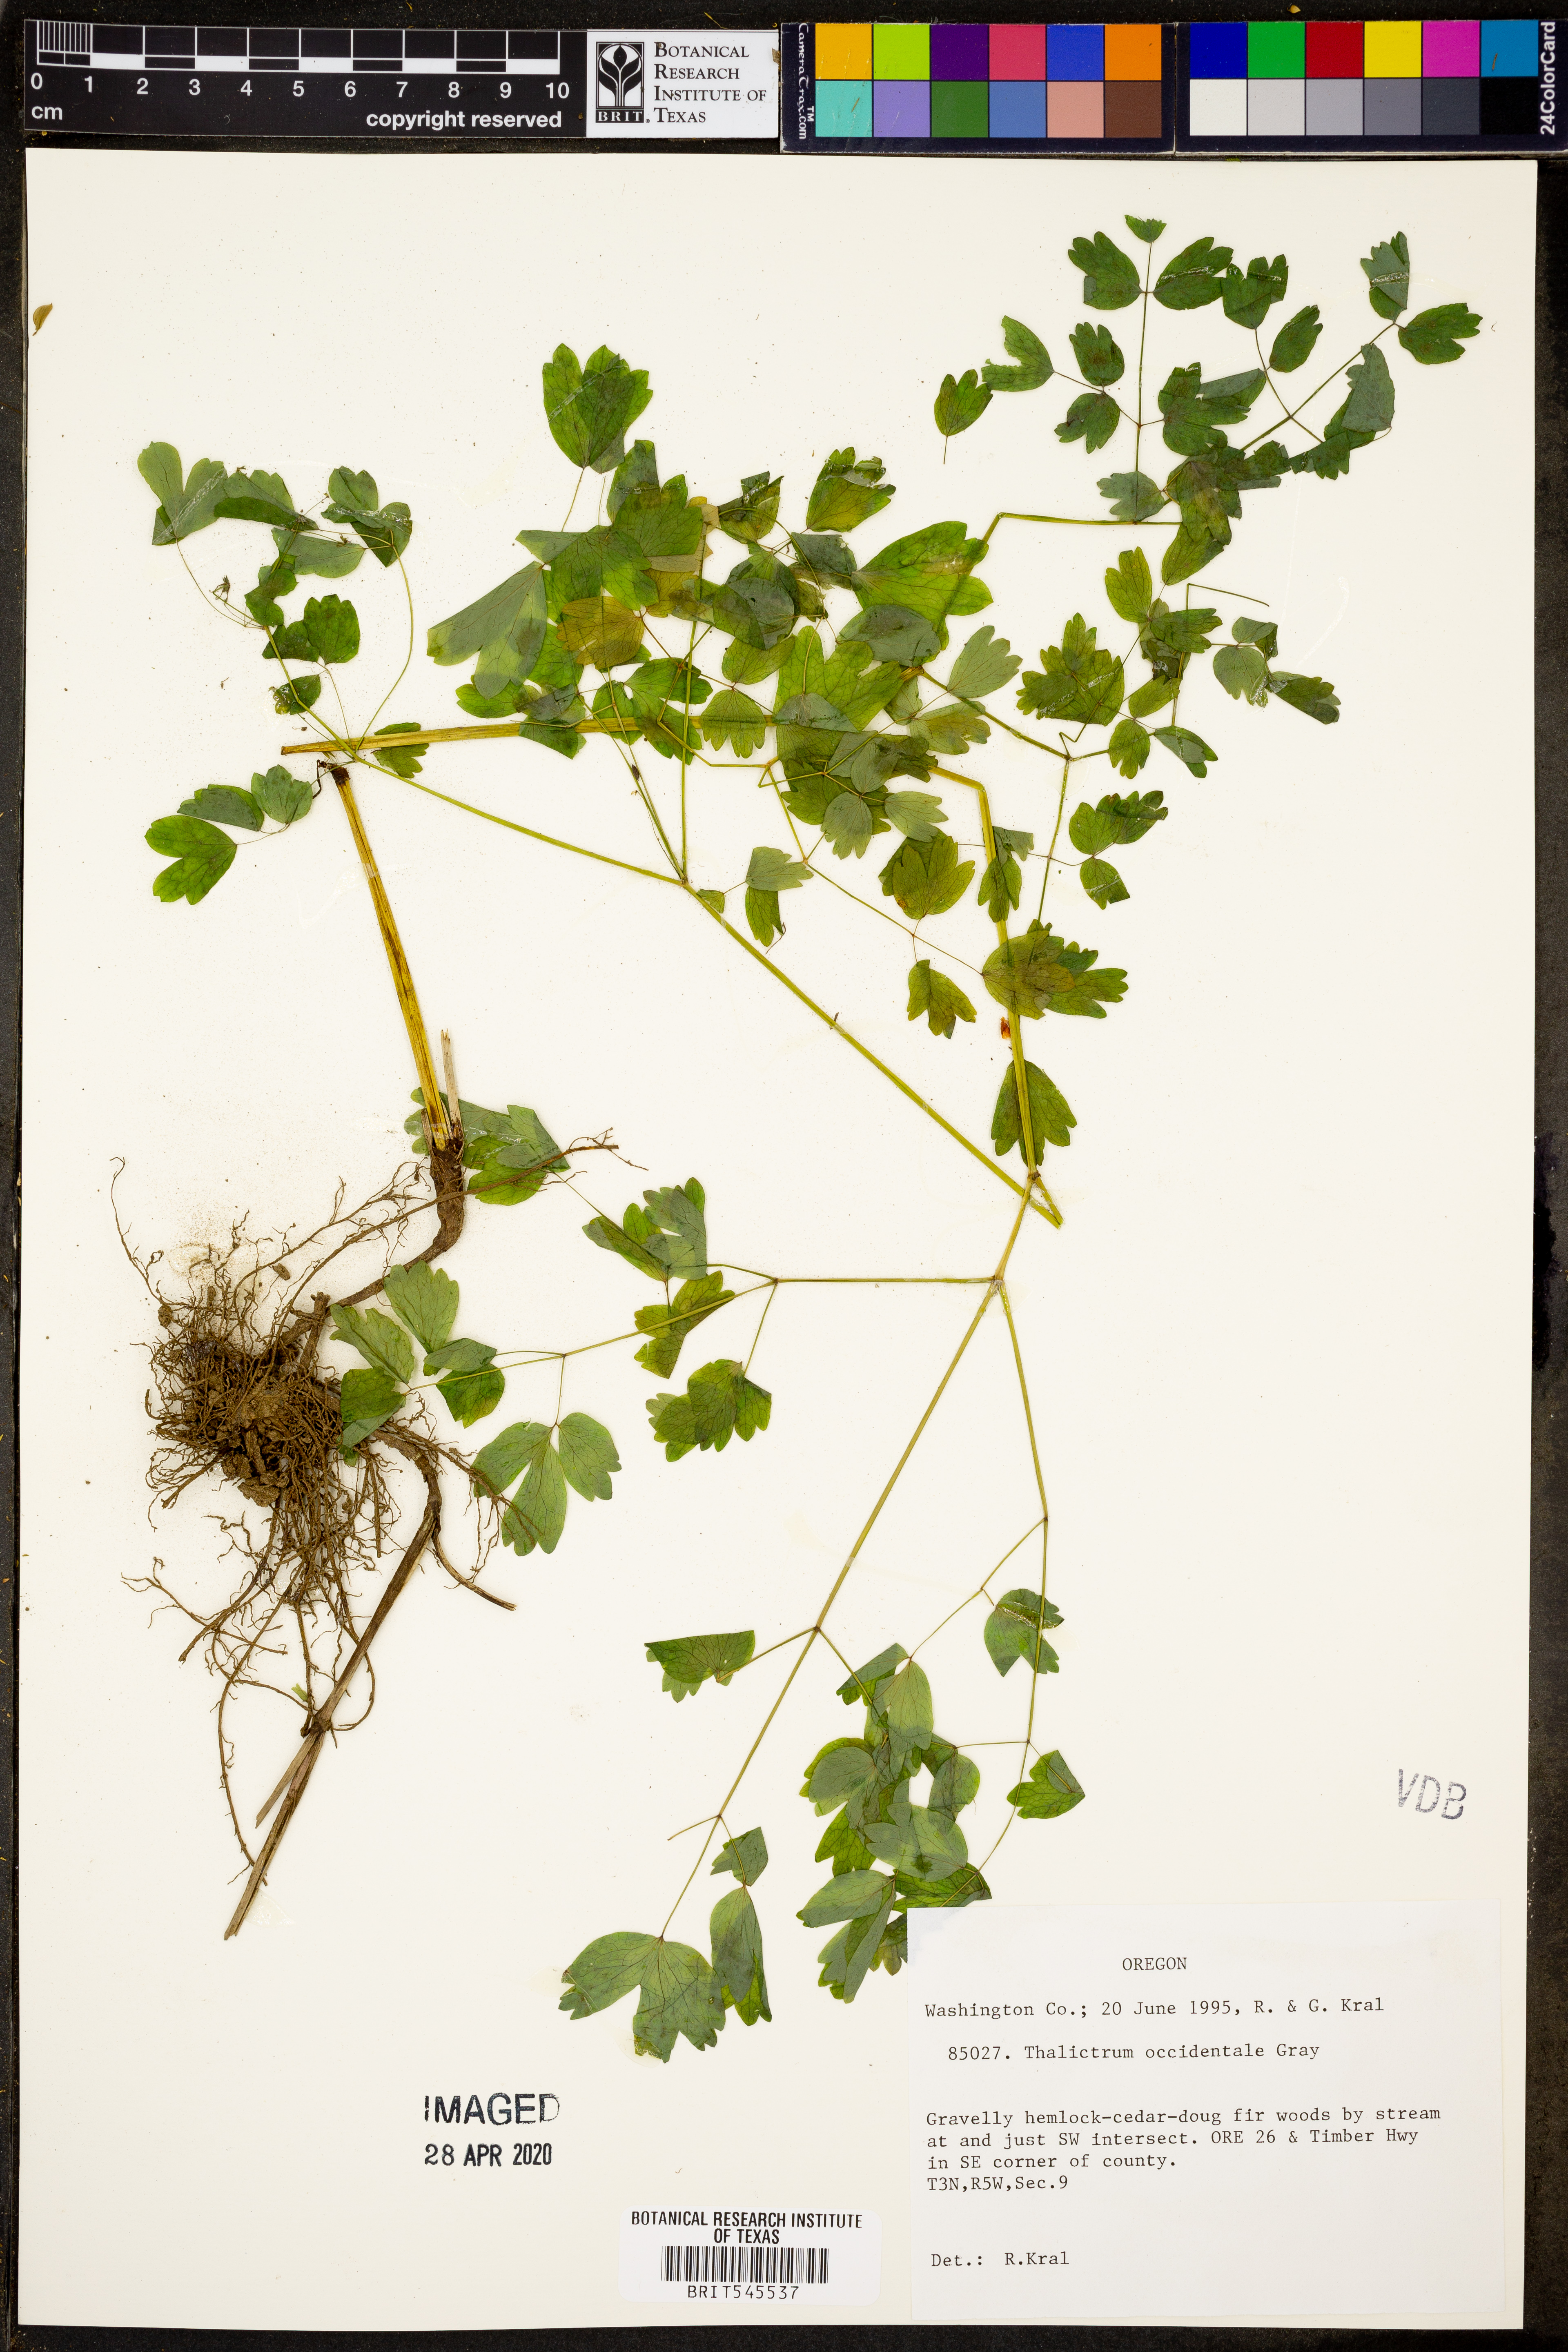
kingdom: Plantae
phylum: Tracheophyta
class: Magnoliopsida
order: Ranunculales
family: Ranunculaceae
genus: Thalictrum
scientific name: Thalictrum occidentale
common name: Western meadow-rue
